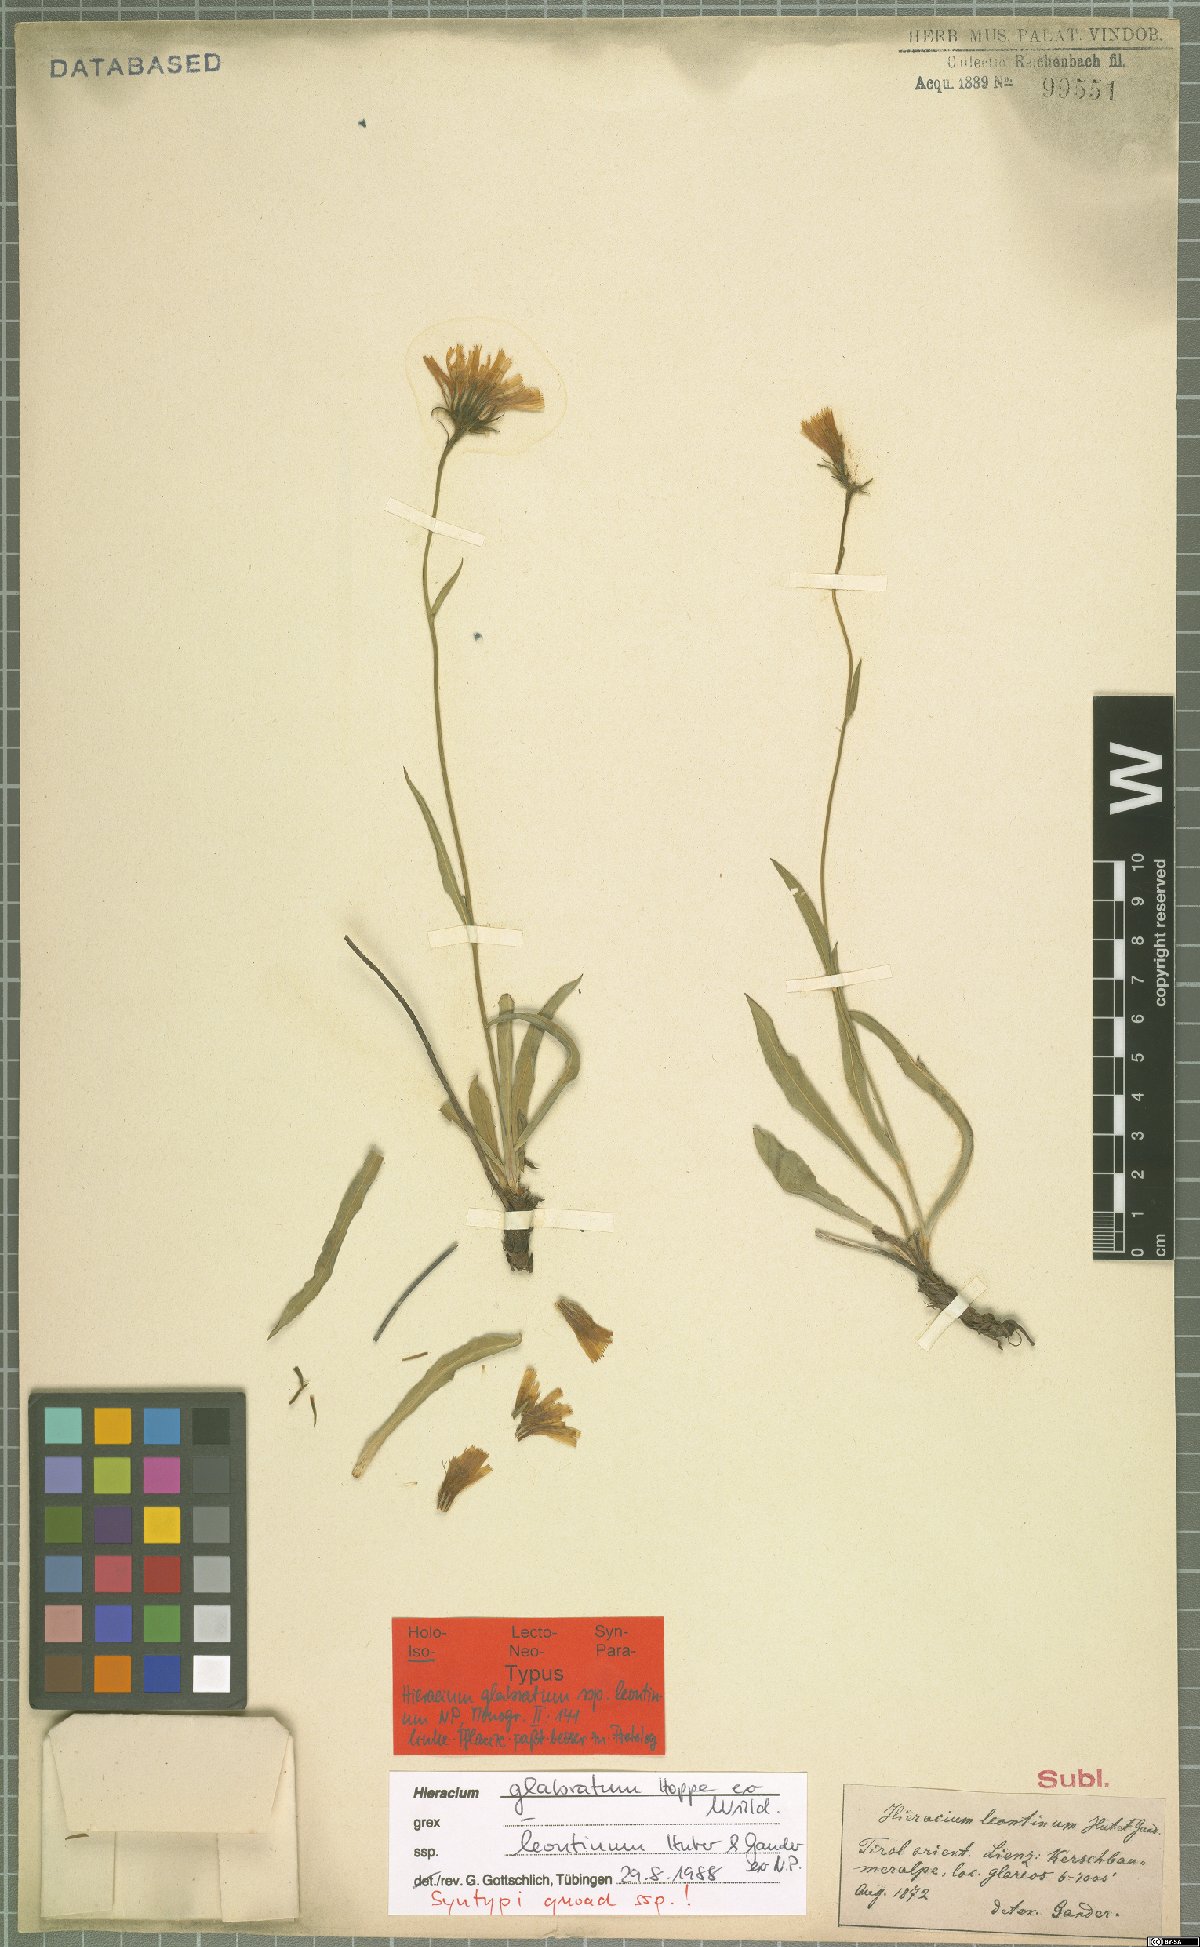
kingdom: Plantae
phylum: Tracheophyta
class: Magnoliopsida
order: Asterales
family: Asteraceae
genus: Hieracium
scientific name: Hieracium glabratum
